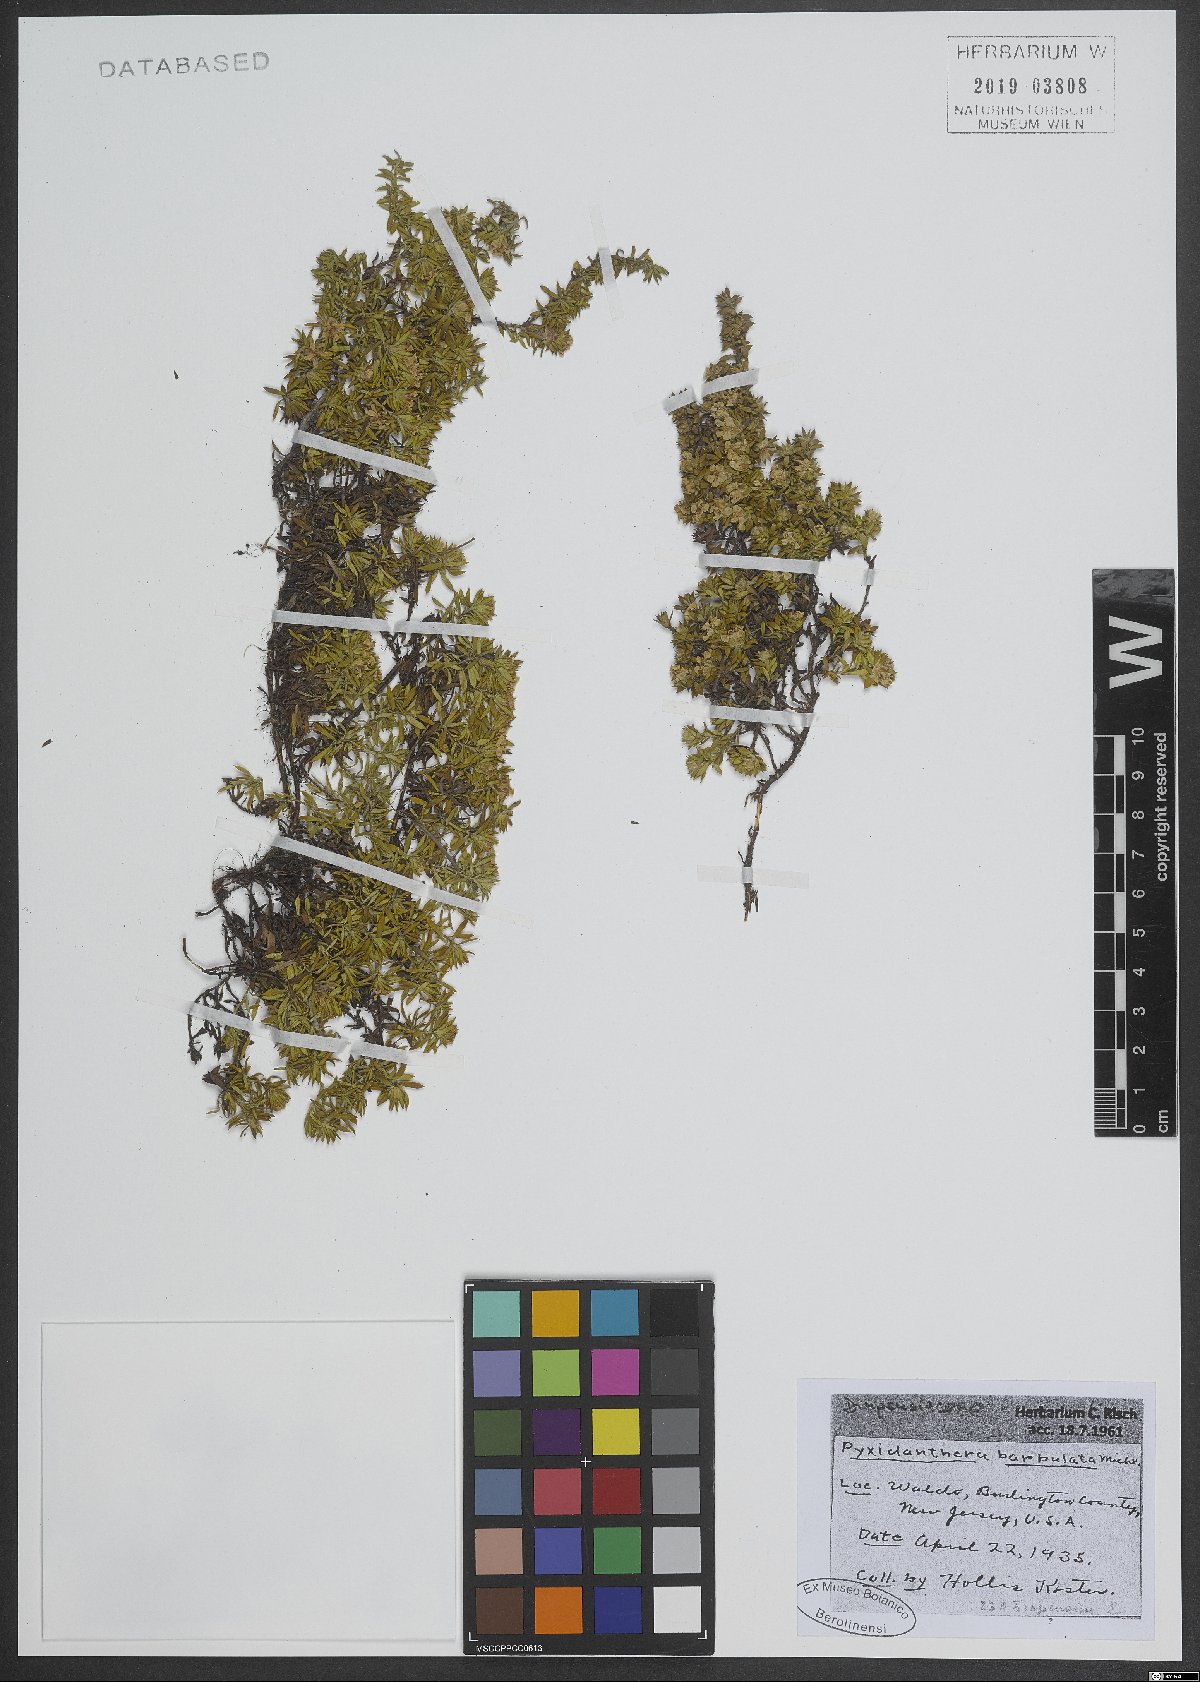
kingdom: Plantae
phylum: Tracheophyta
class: Magnoliopsida
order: Ericales
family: Diapensiaceae
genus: Pyxidanthera
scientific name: Pyxidanthera barbulata
